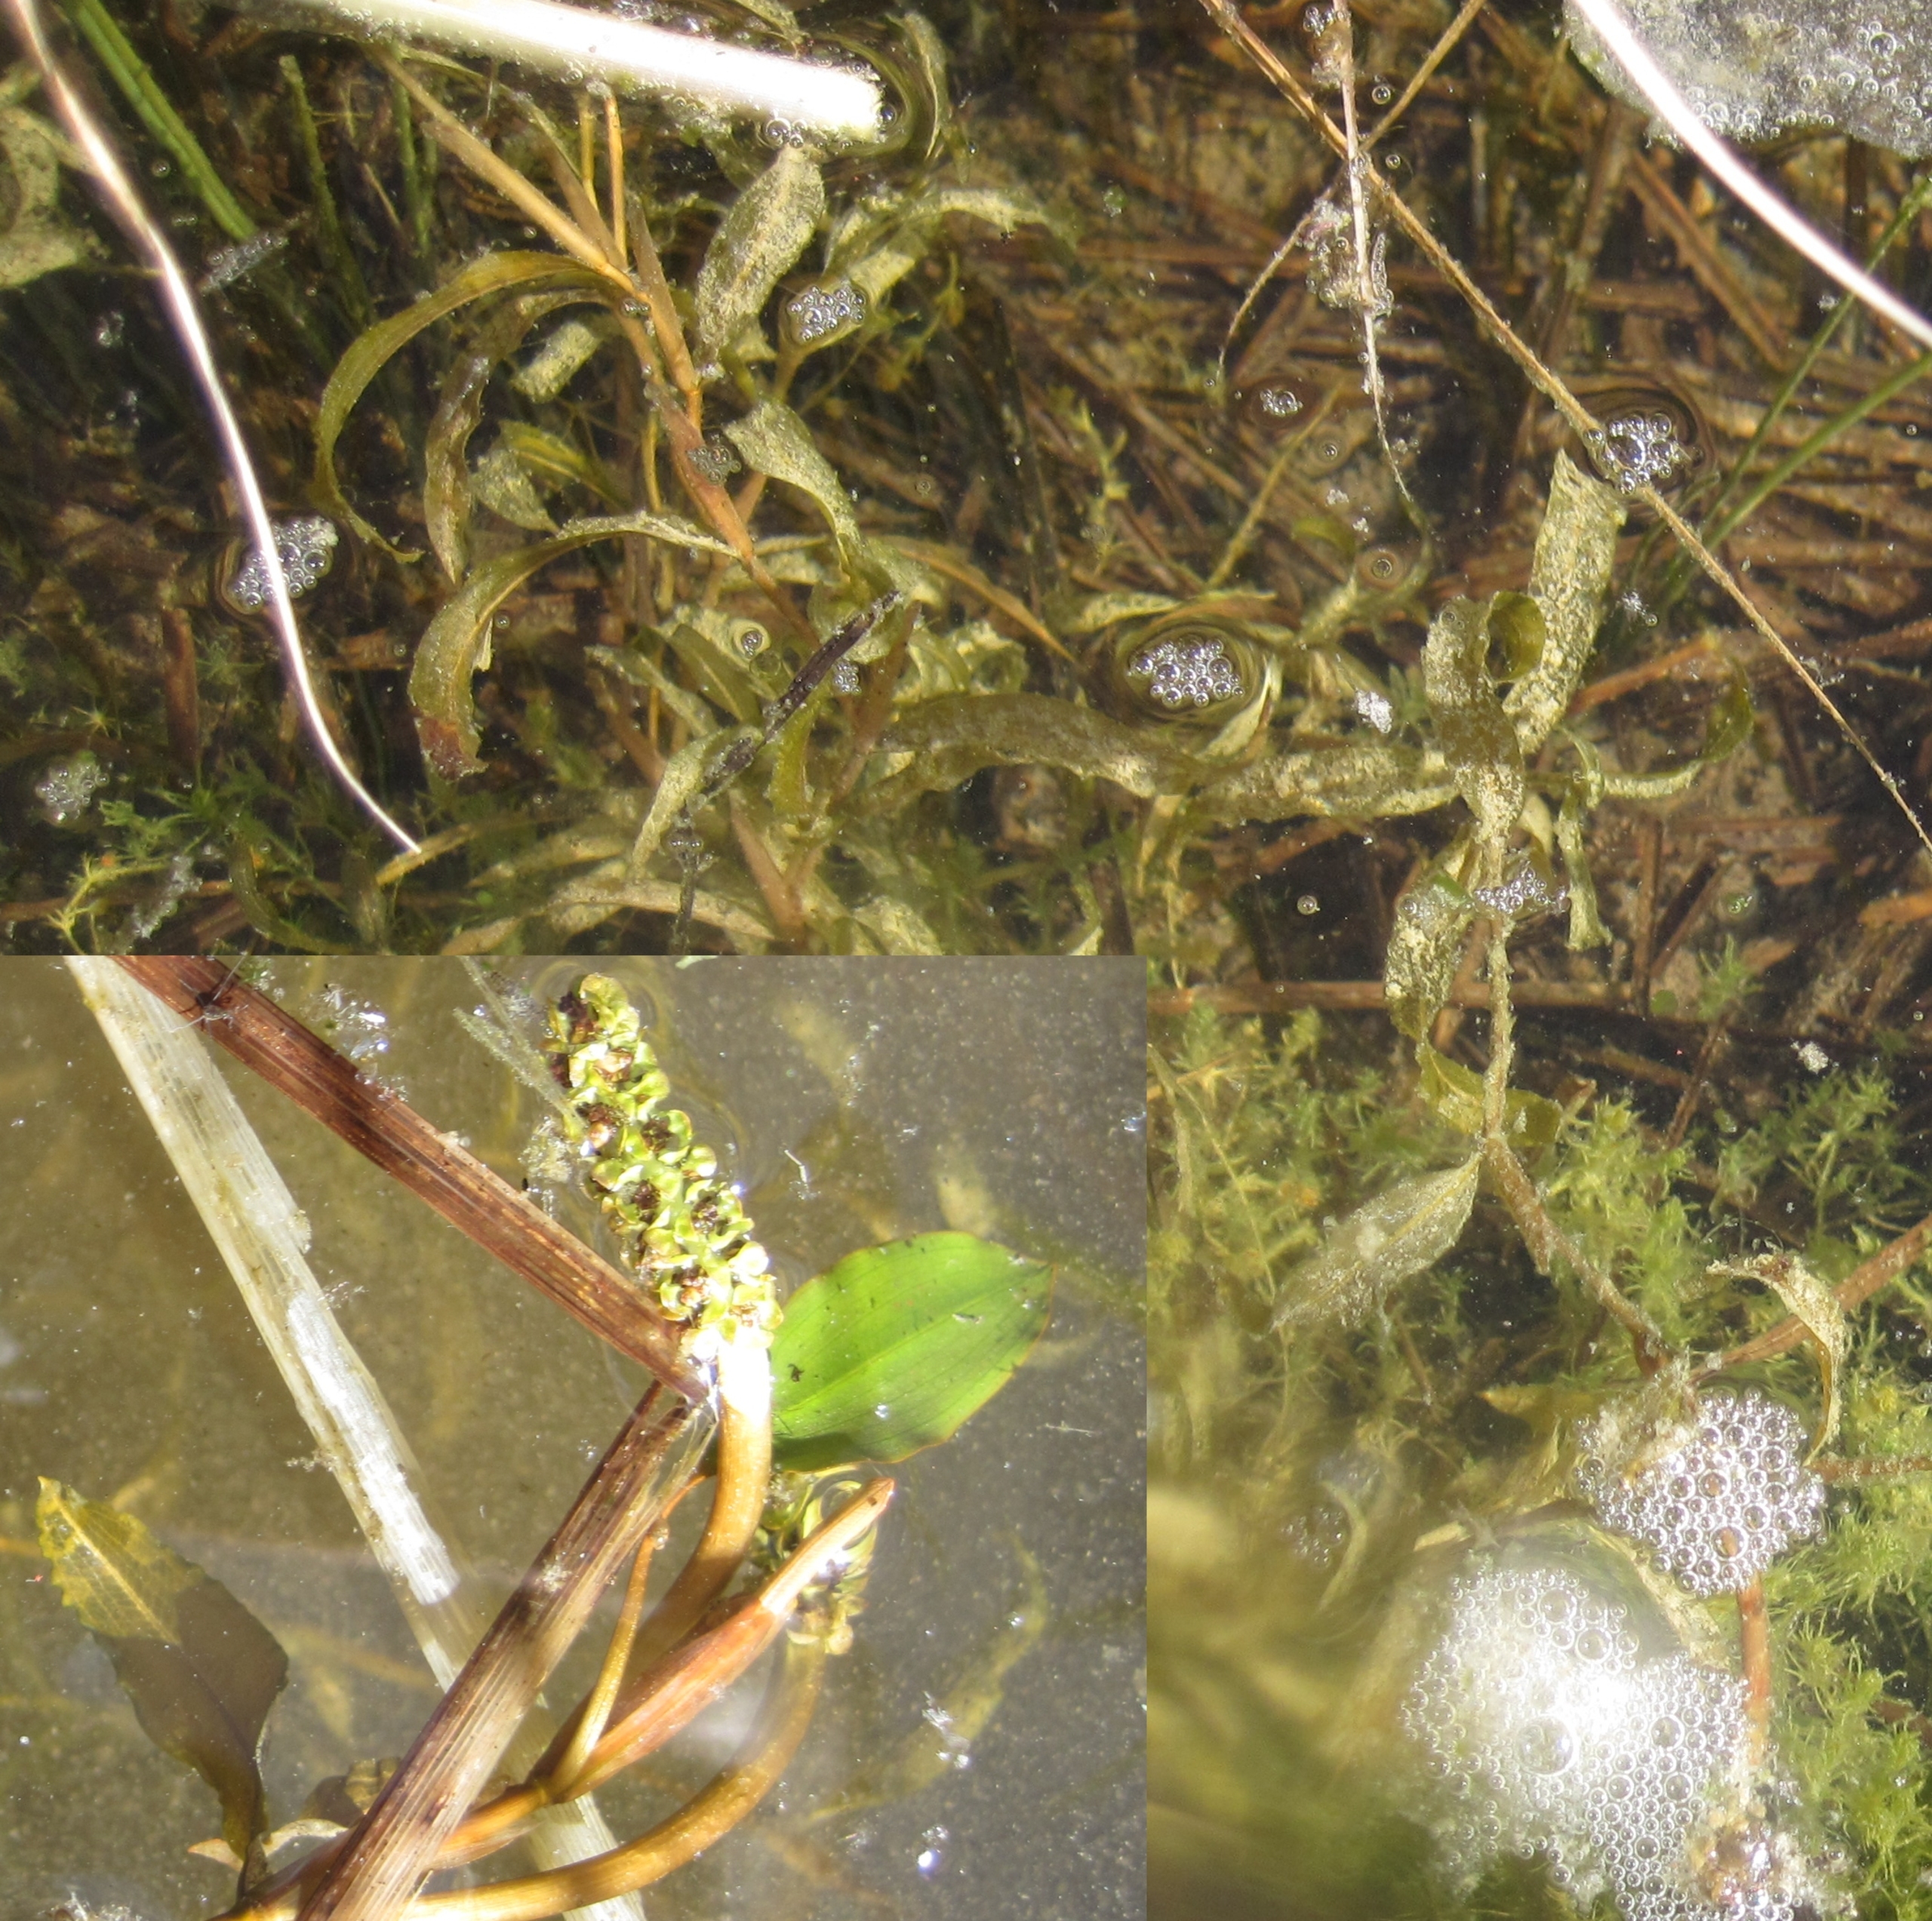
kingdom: Plantae
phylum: Tracheophyta
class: Liliopsida
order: Alismatales
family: Potamogetonaceae
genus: Potamogeton
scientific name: Potamogeton gramineus
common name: Græsbladet vandaks
